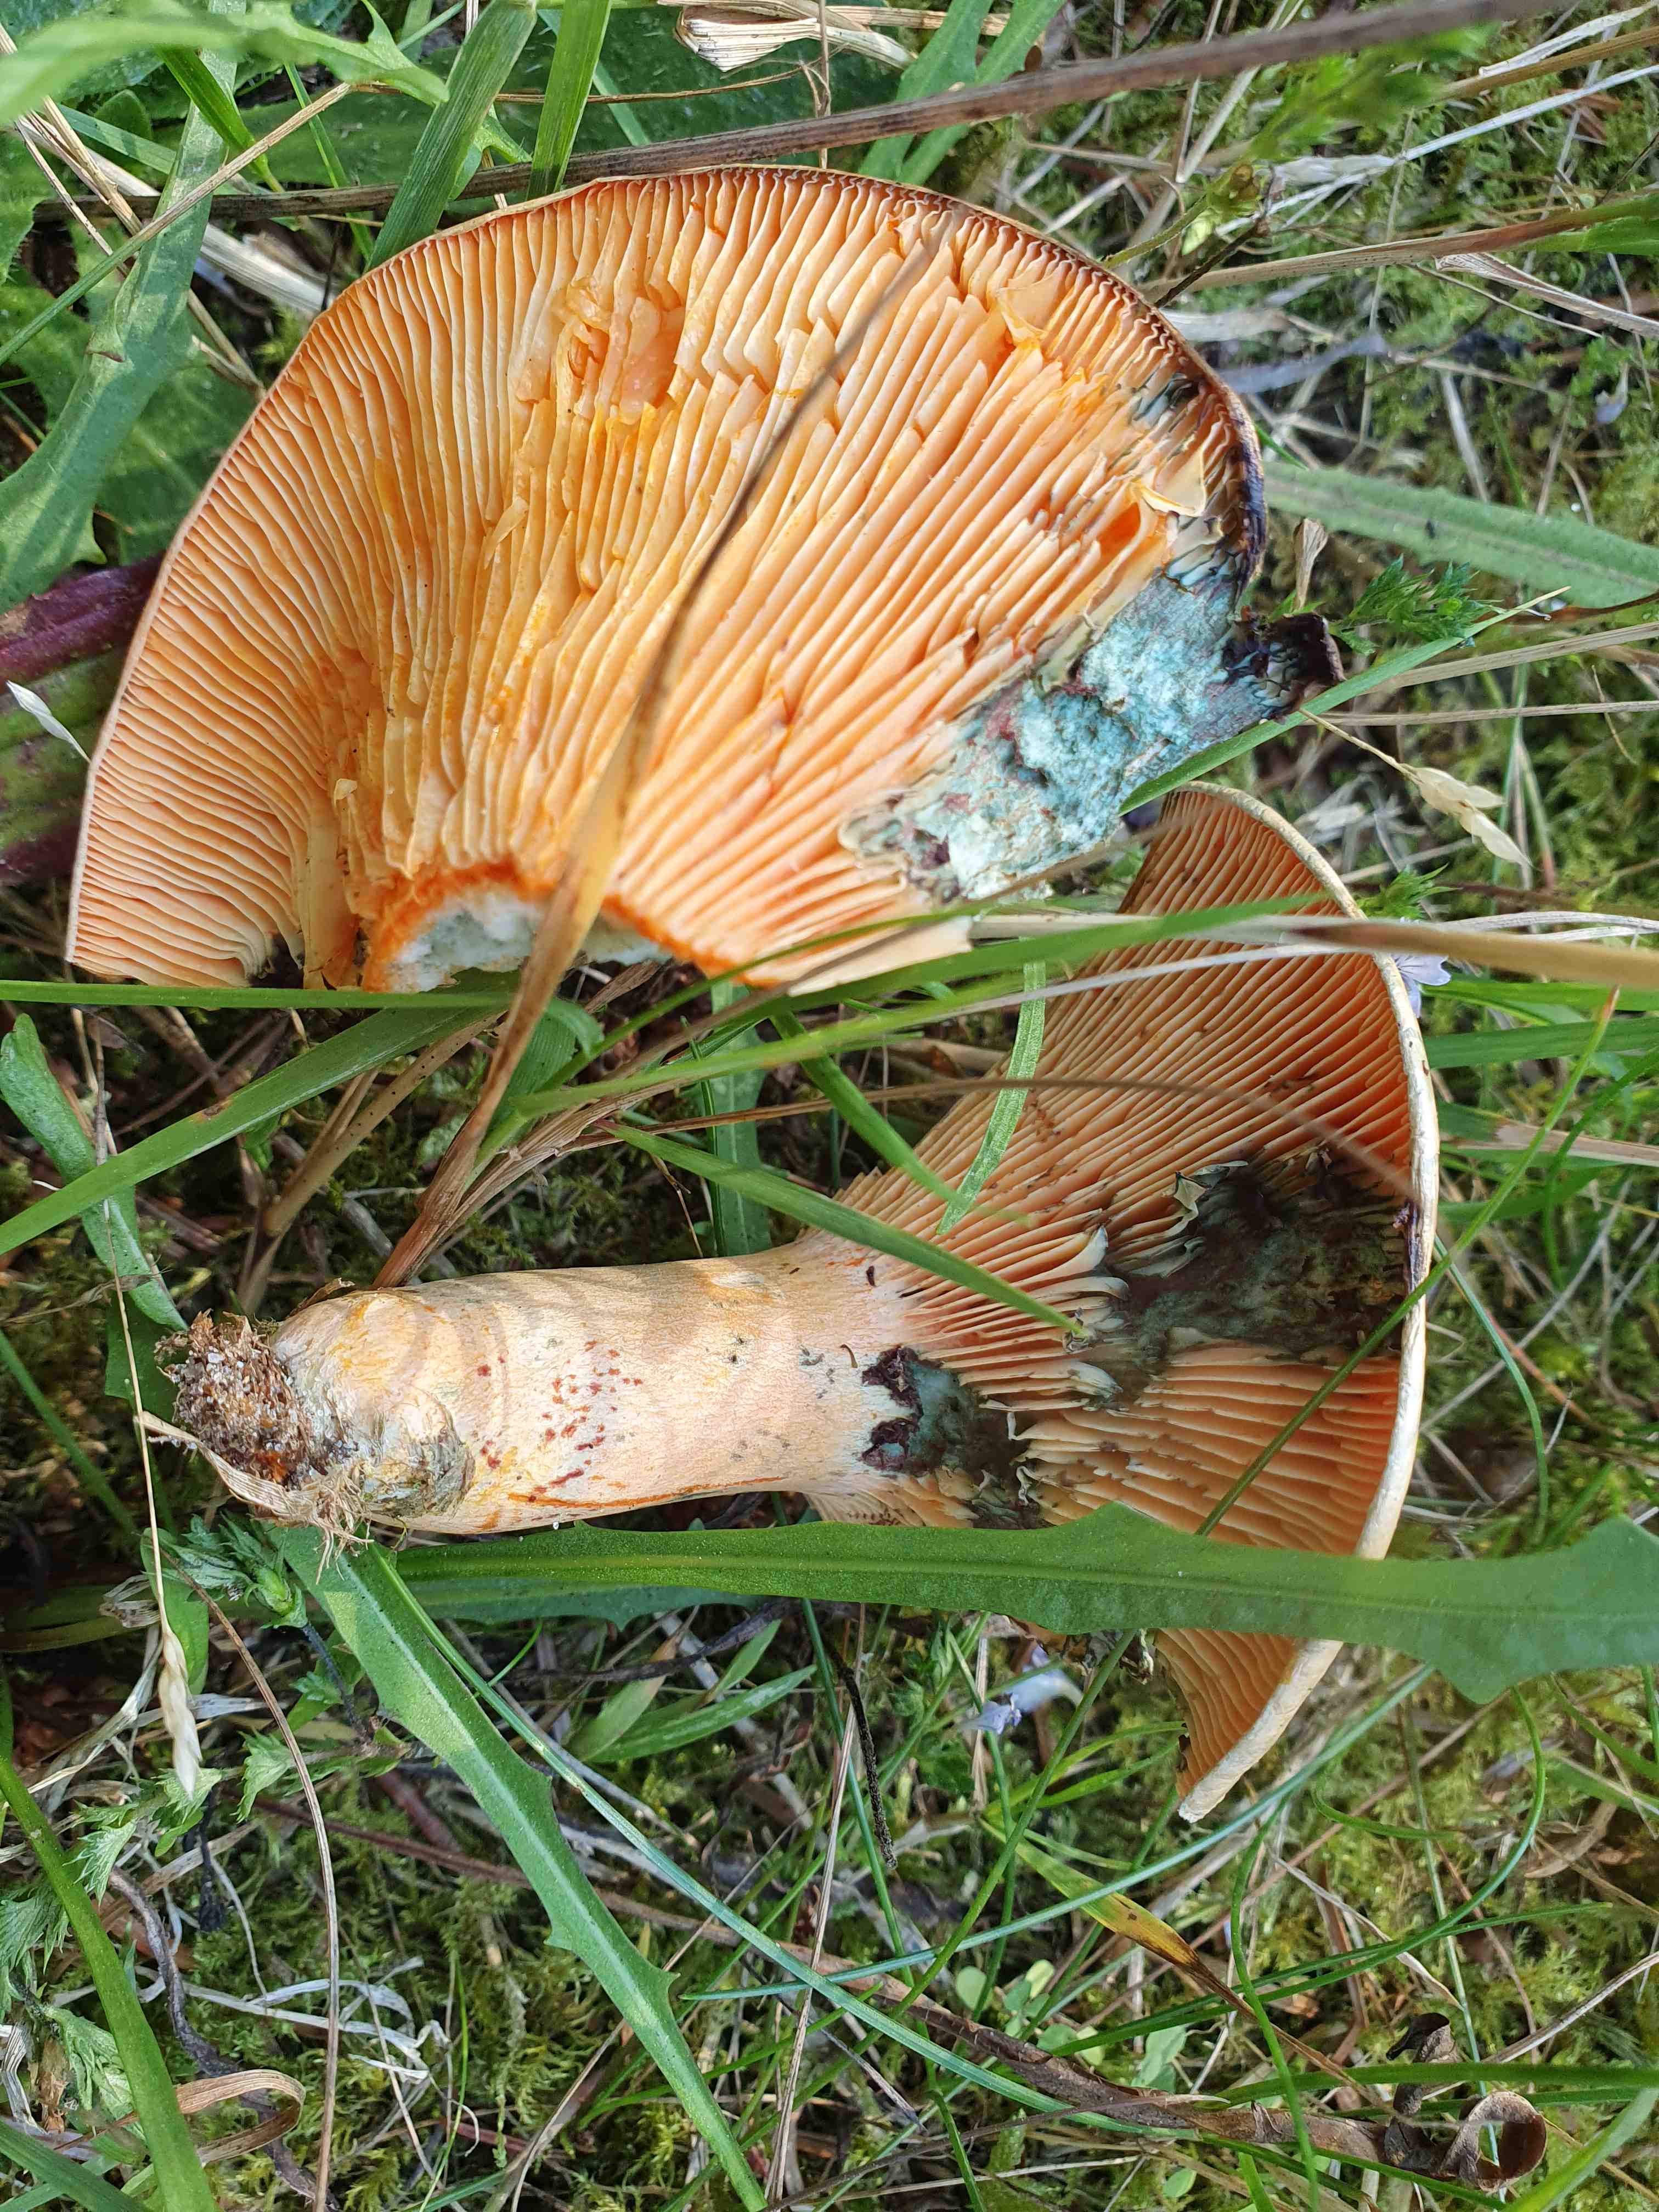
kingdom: Fungi
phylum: Basidiomycota
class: Agaricomycetes
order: Russulales
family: Russulaceae
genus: Lactarius
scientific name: Lactarius deterrimus
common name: gran-mælkehat
